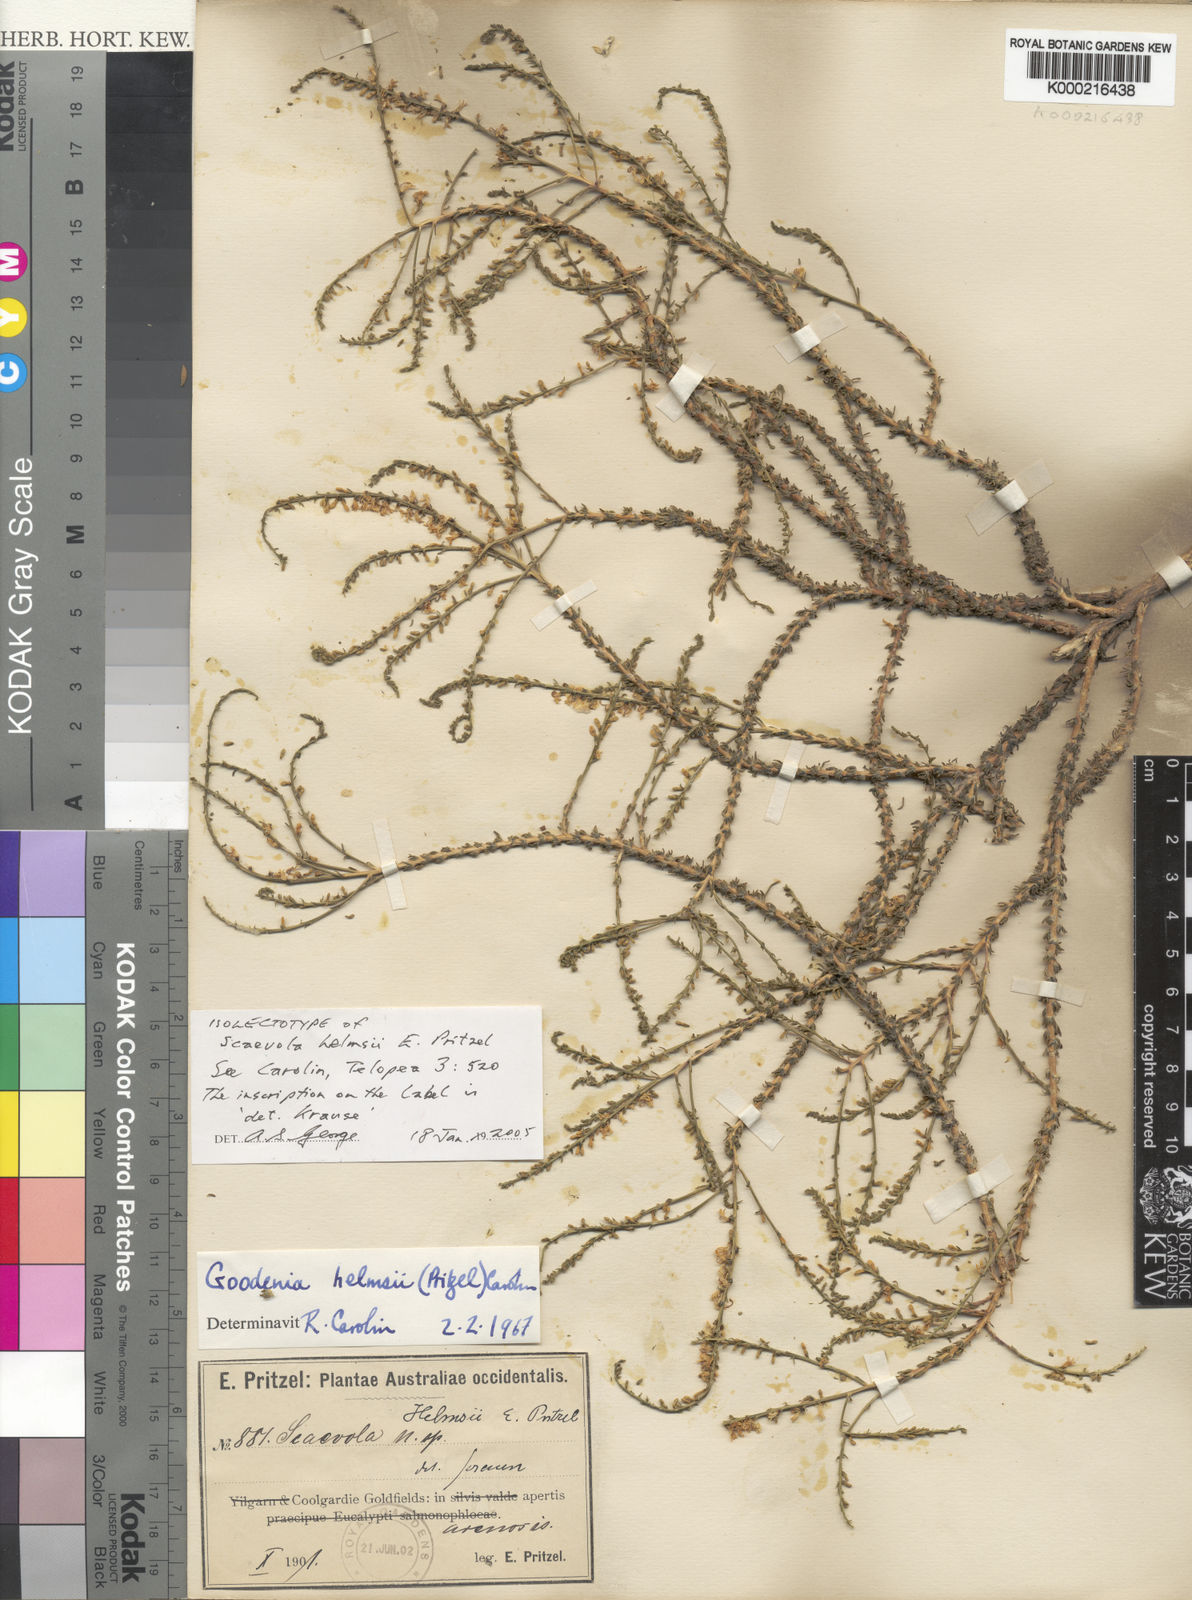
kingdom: Plantae
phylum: Tracheophyta
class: Magnoliopsida
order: Asterales
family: Goodeniaceae
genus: Goodenia
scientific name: Goodenia helmsii
